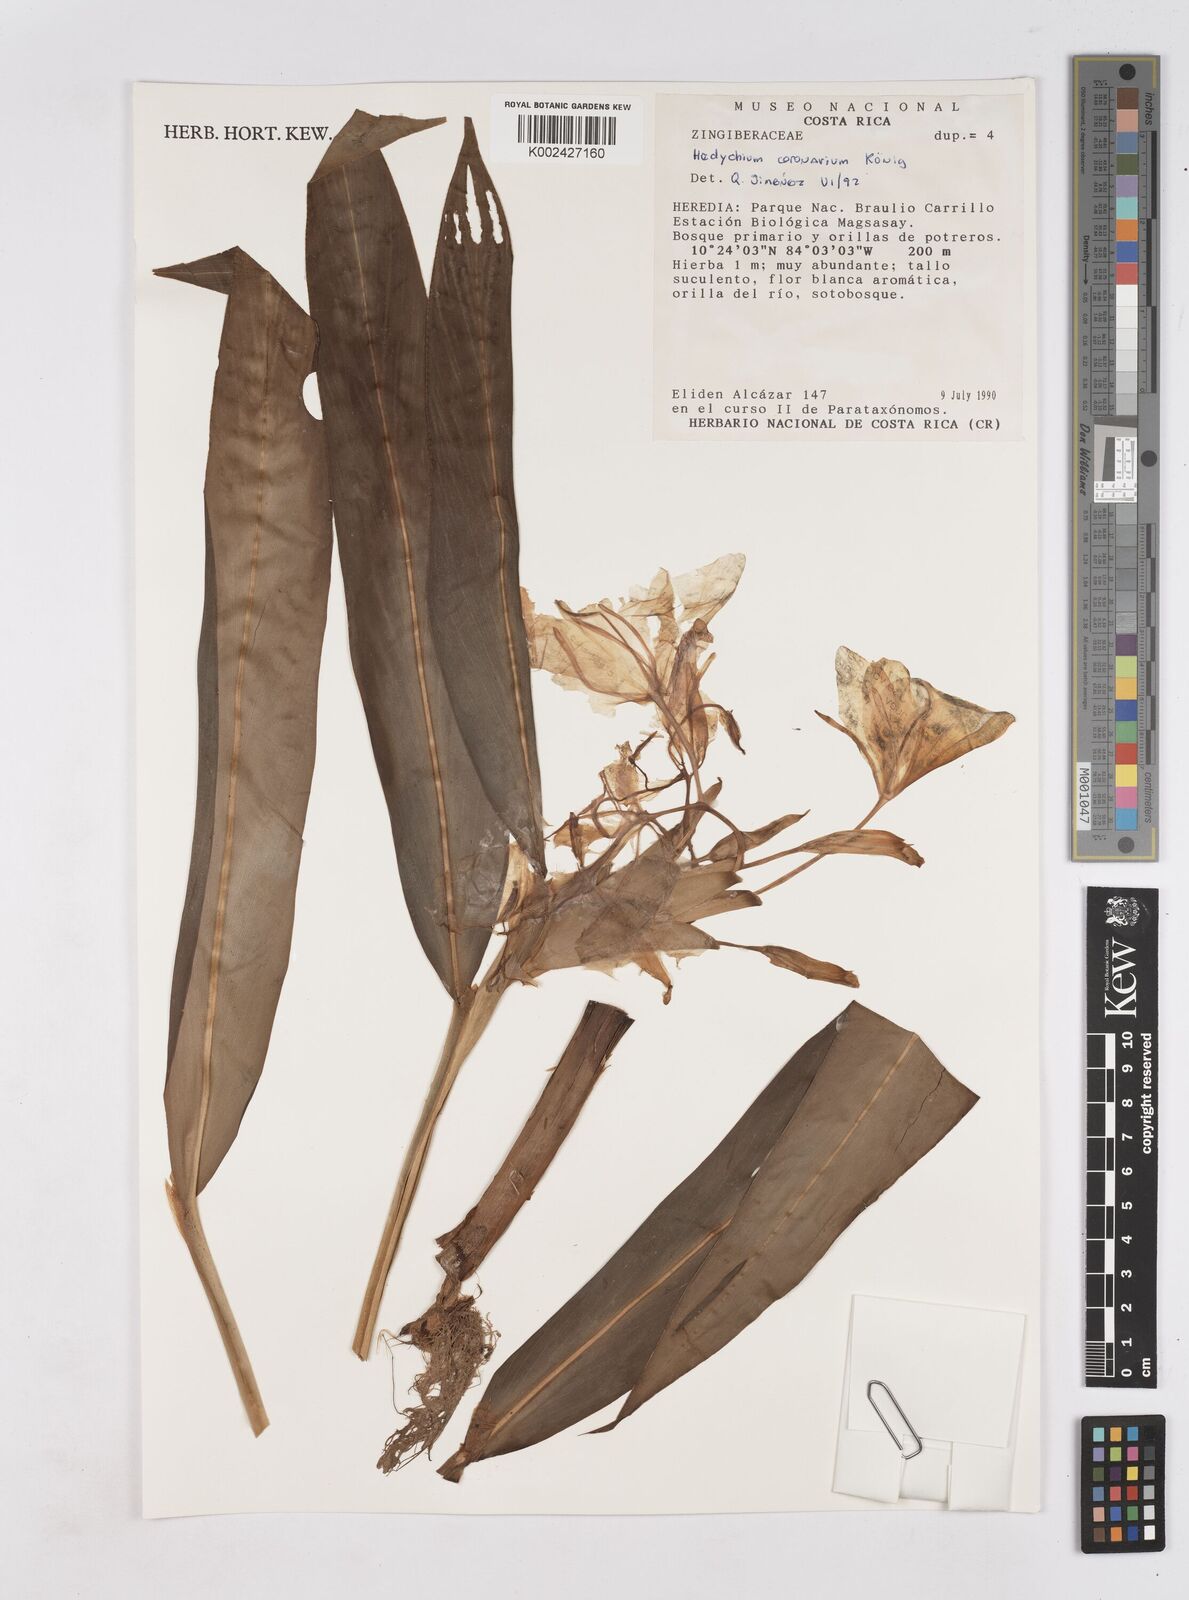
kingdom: Plantae
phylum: Tracheophyta
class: Liliopsida
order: Zingiberales
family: Zingiberaceae
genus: Hedychium
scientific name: Hedychium coronarium
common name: White garland-lily
